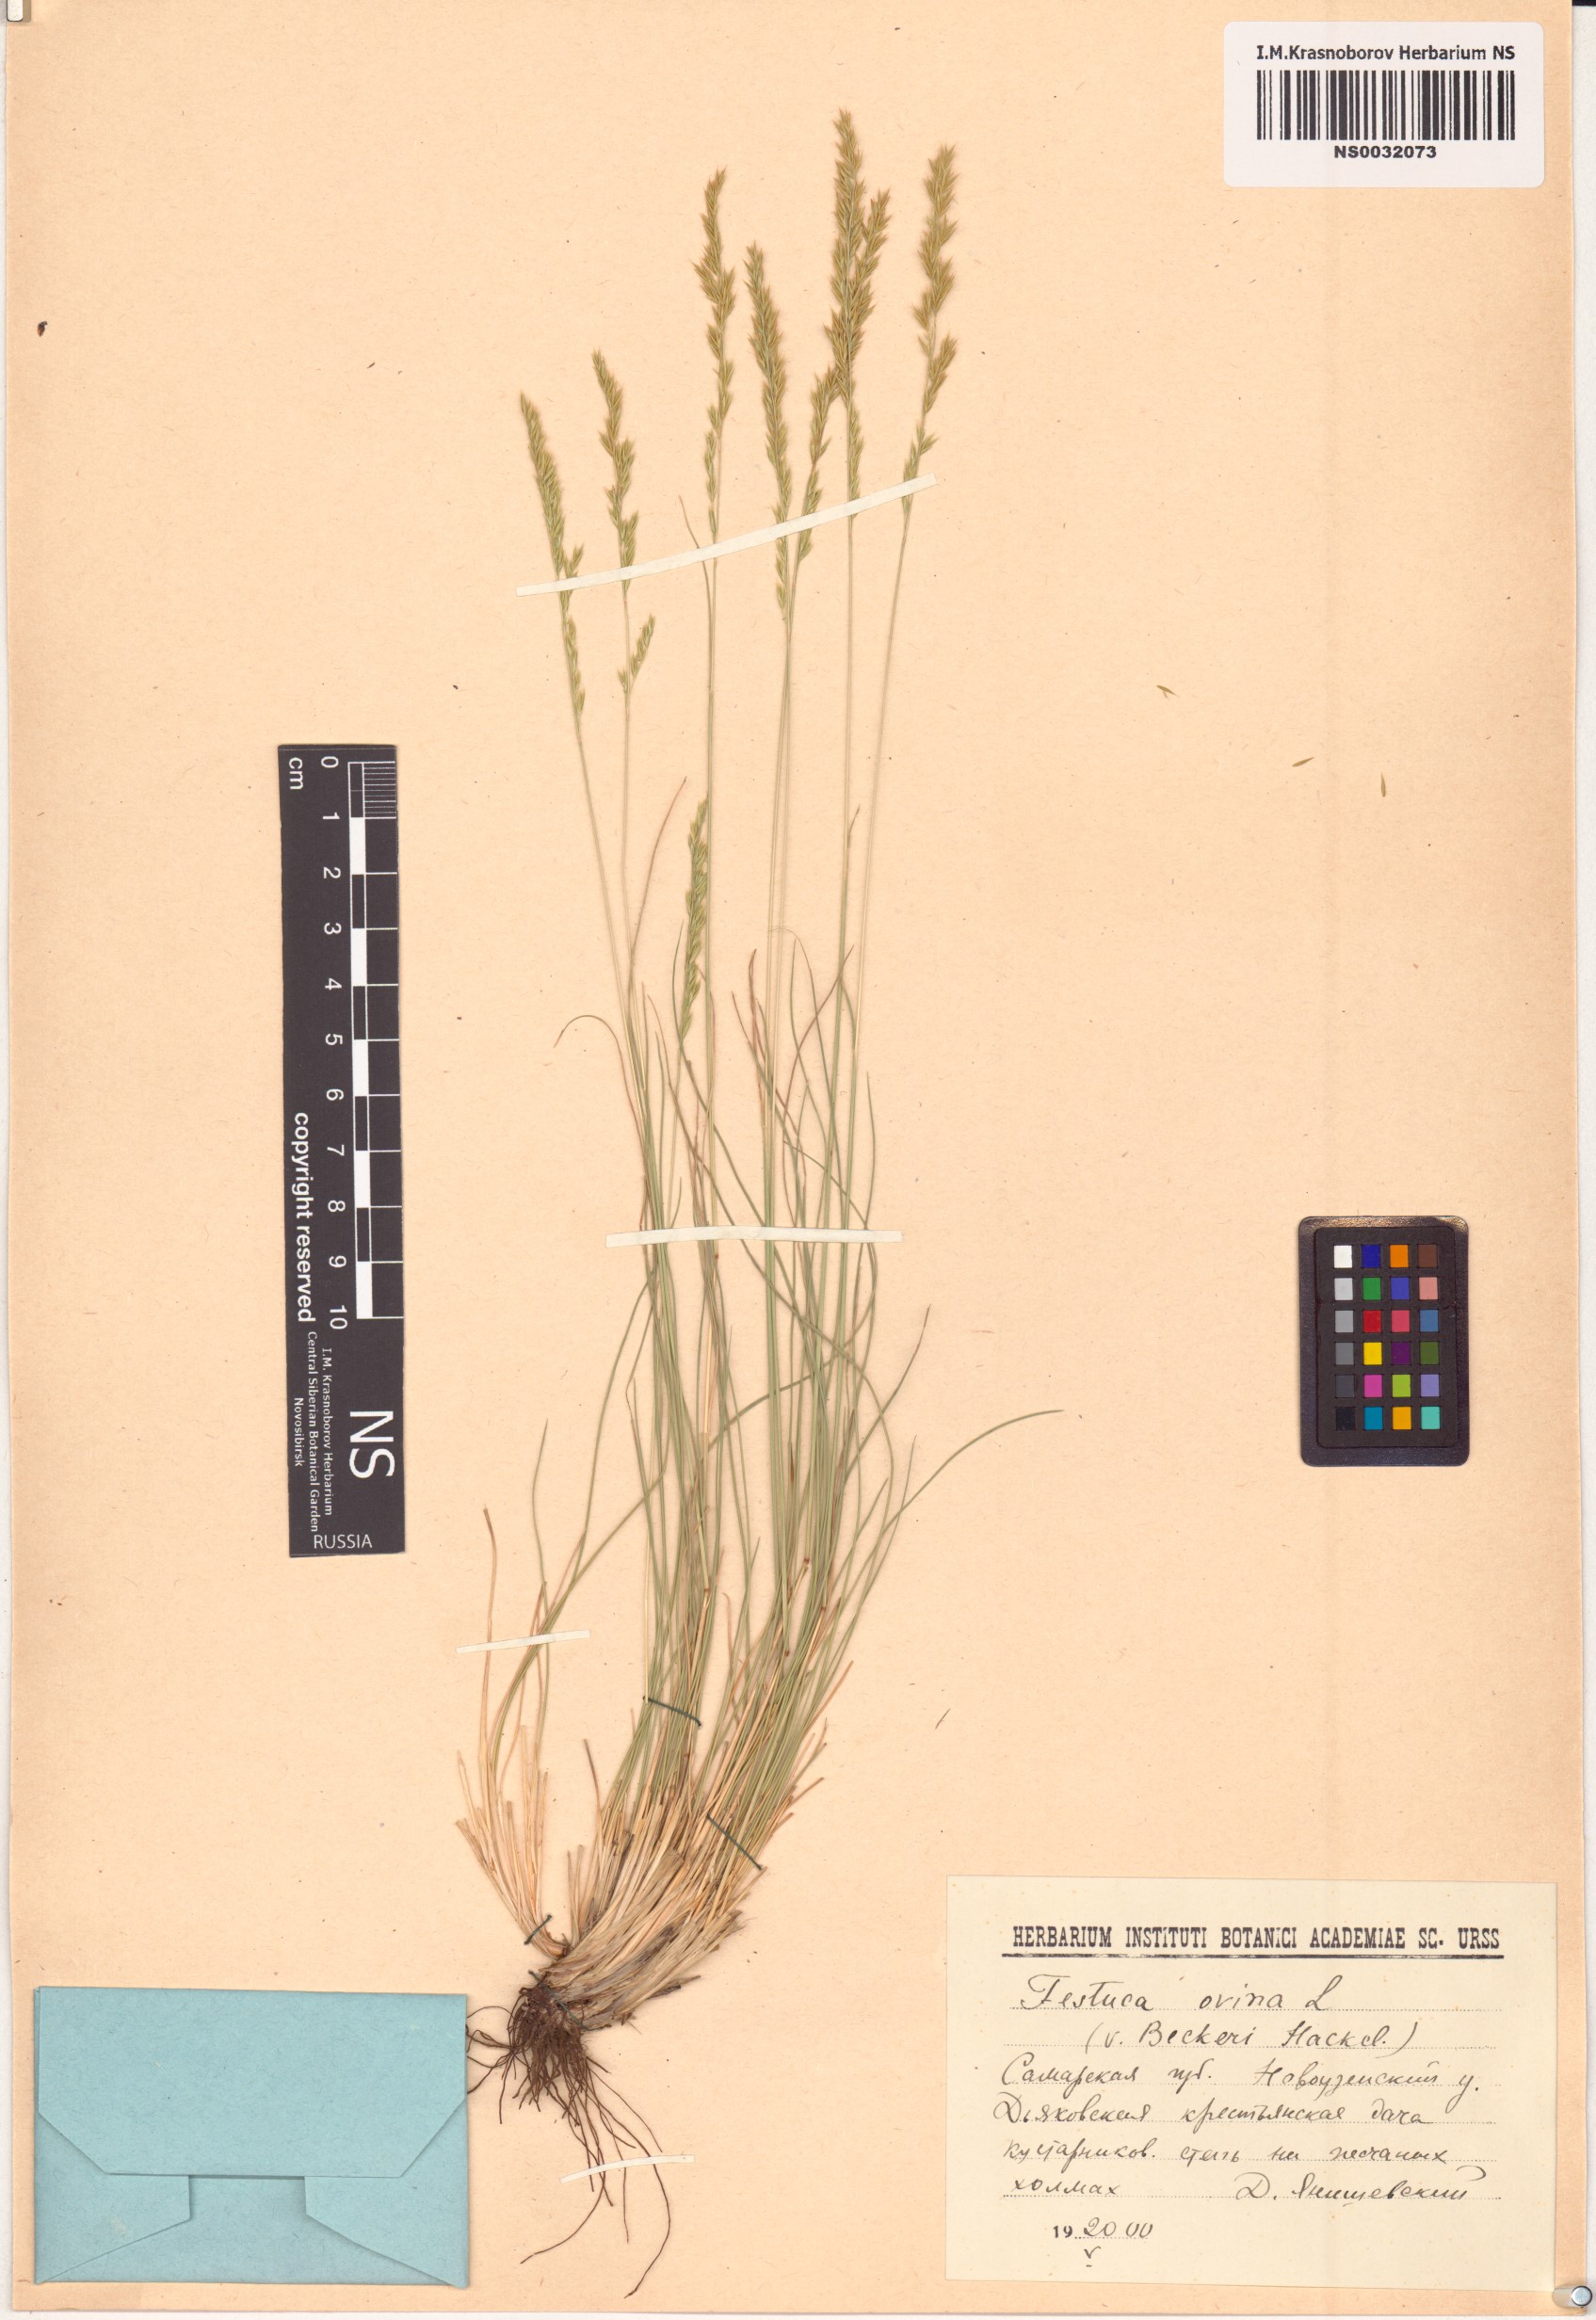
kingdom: Plantae
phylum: Tracheophyta
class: Liliopsida
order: Poales
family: Poaceae
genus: Festuca
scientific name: Festuca ovina
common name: Sheep fescue
